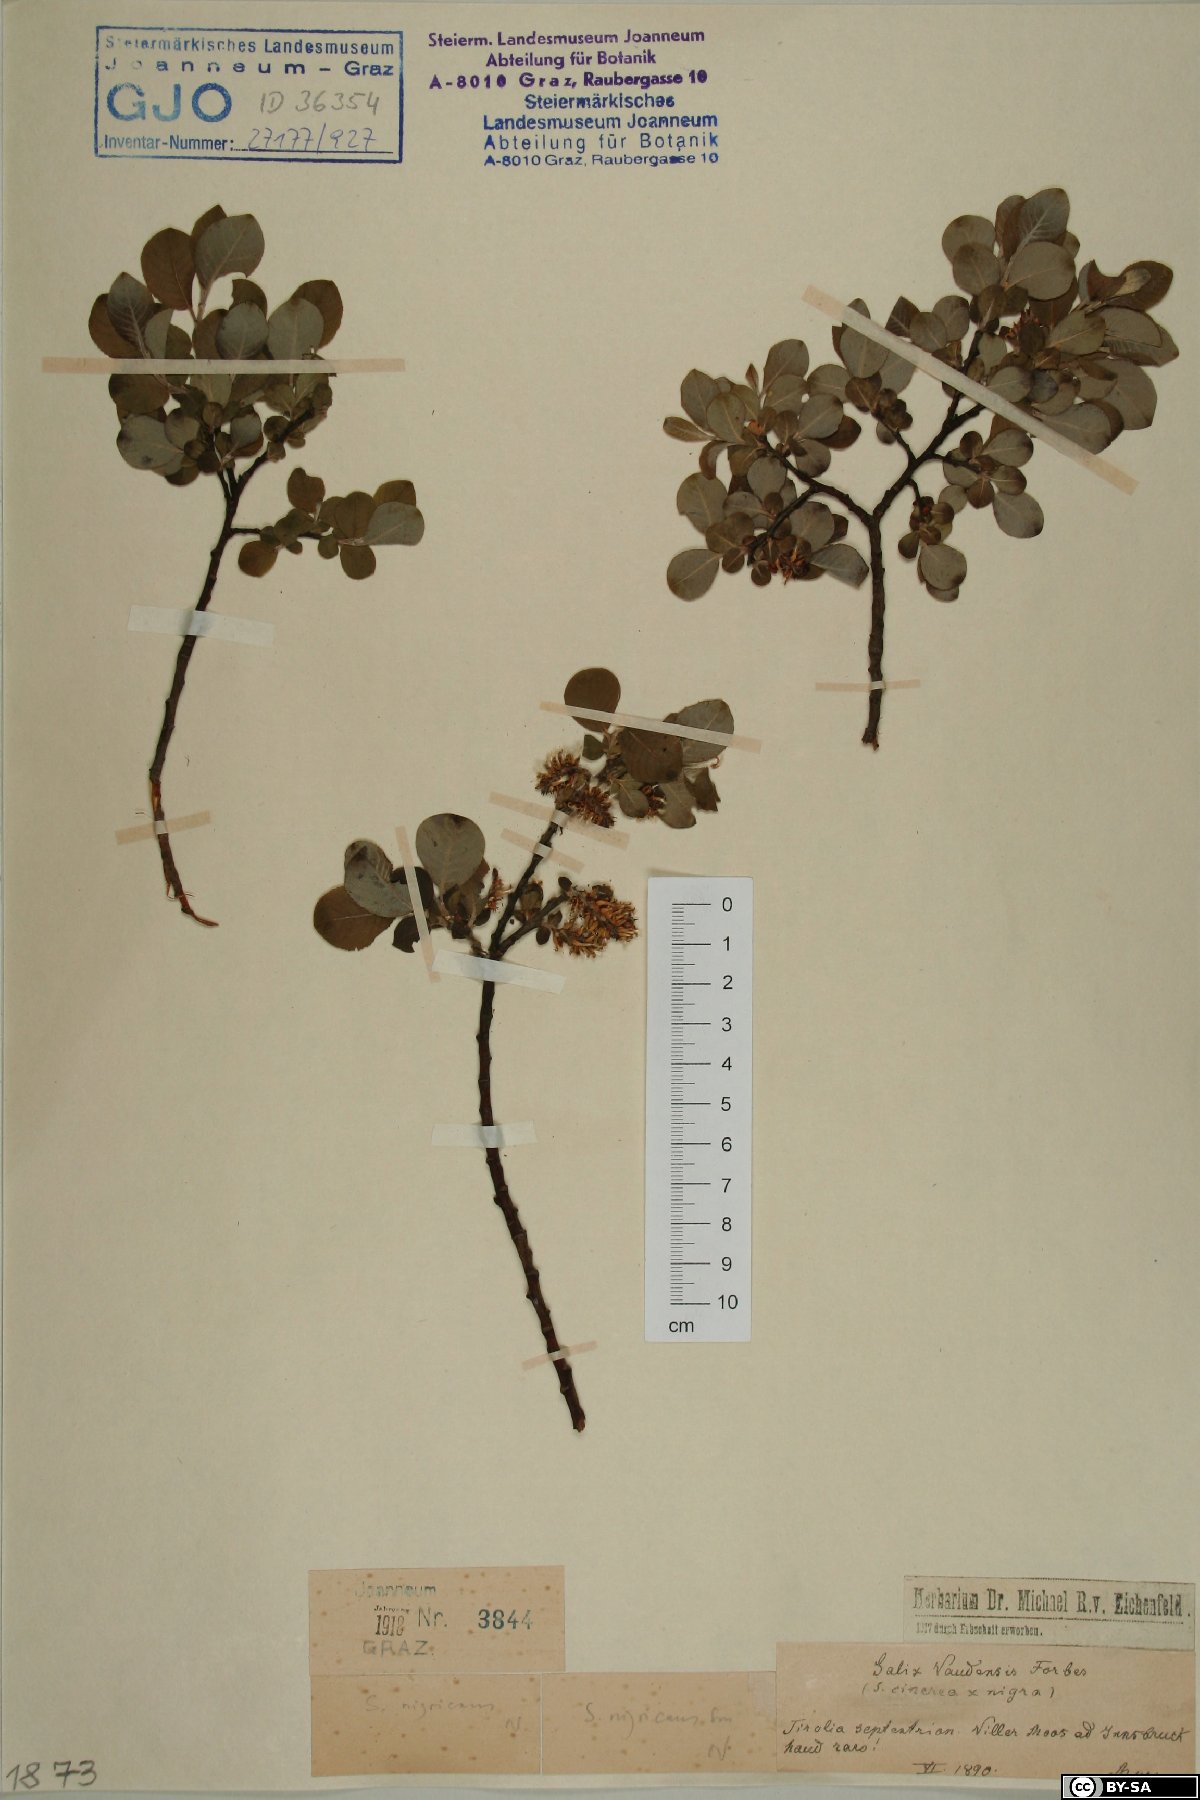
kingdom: Plantae
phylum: Tracheophyta
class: Magnoliopsida
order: Malpighiales
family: Salicaceae
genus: Salix
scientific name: Salix myrsinifolia
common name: Dark-leaved willow
